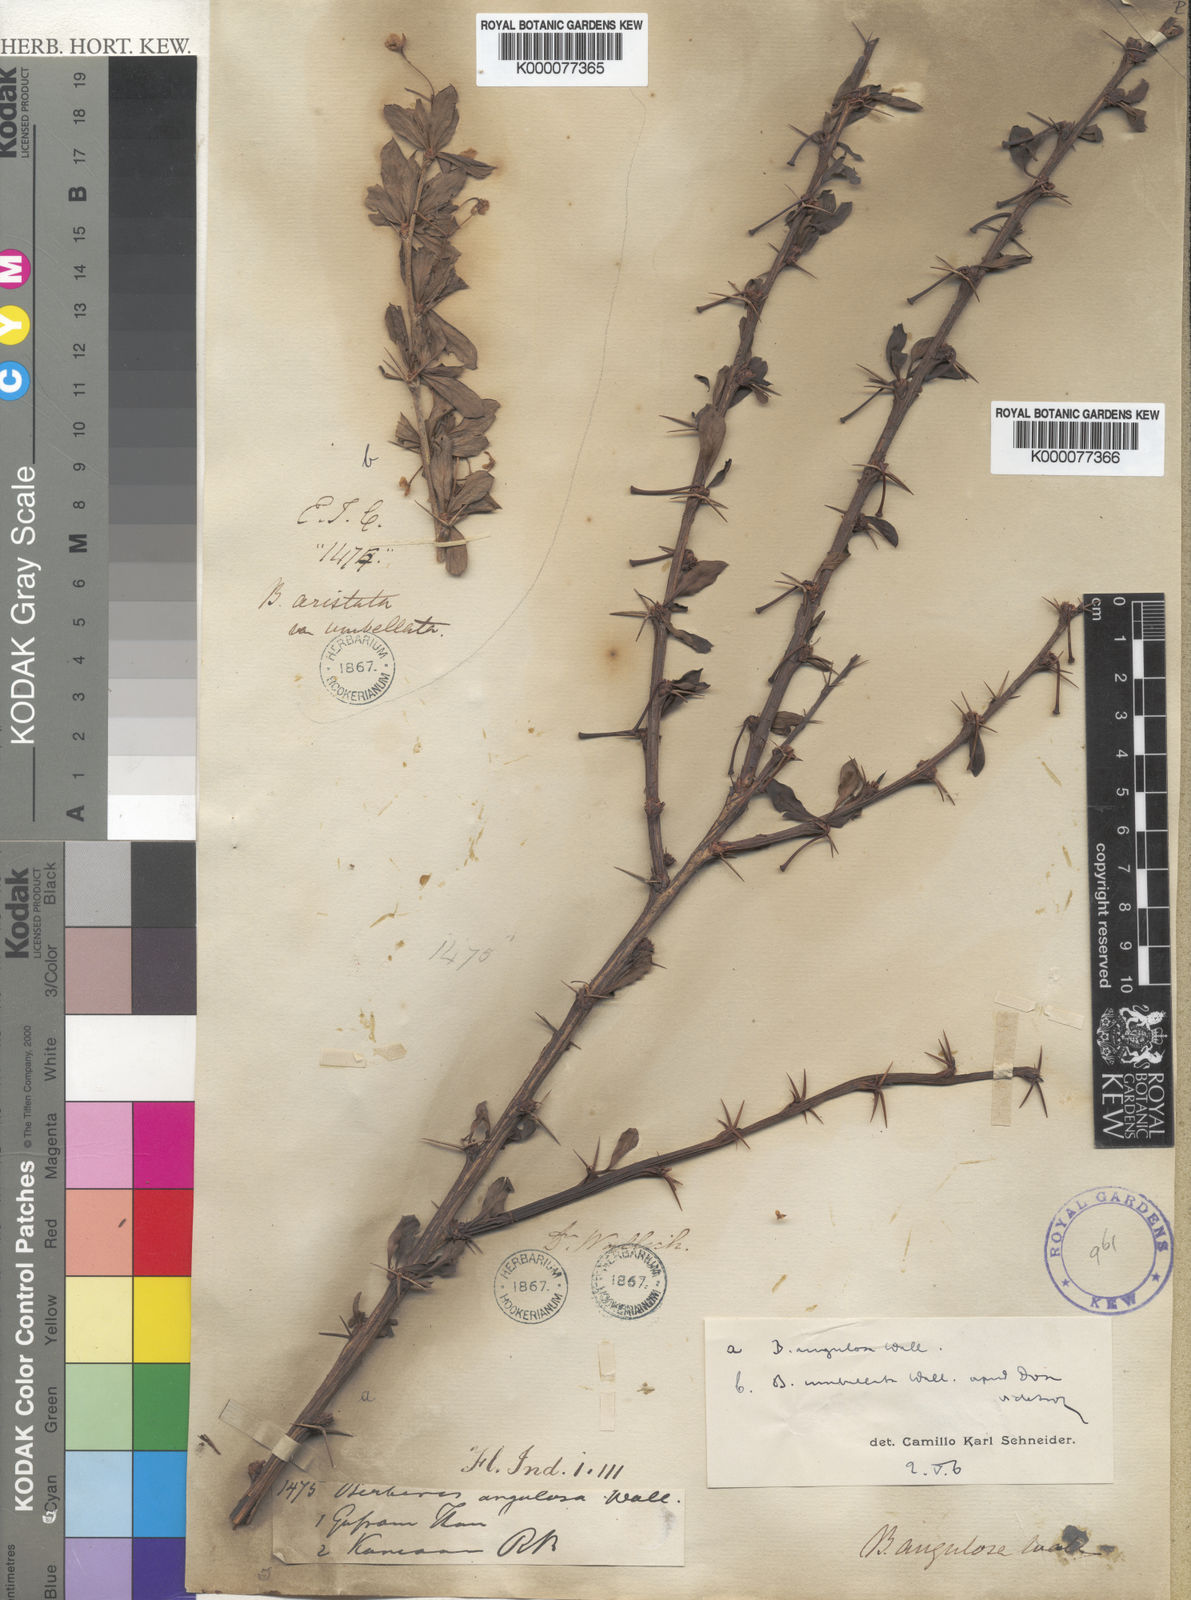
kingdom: Plantae
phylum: Tracheophyta
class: Magnoliopsida
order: Ranunculales
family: Berberidaceae
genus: Berberis
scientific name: Berberis angulosa
